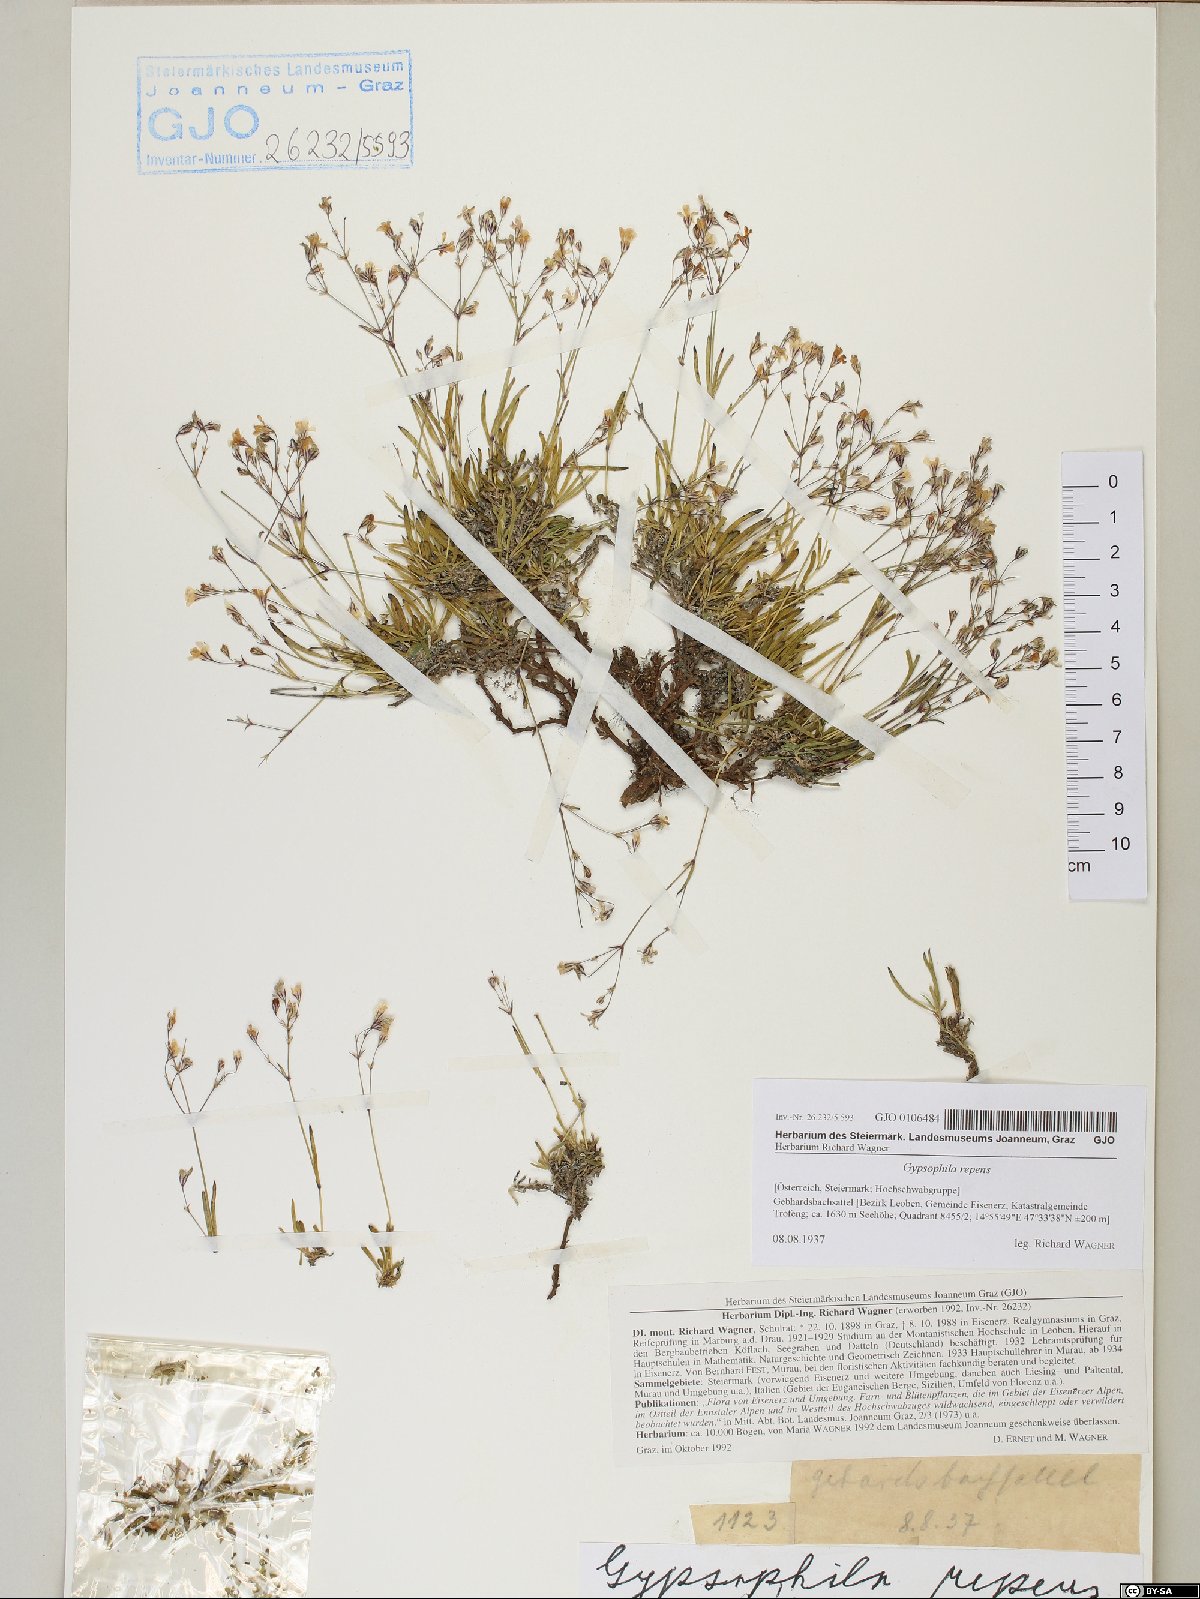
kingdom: Plantae
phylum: Tracheophyta
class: Magnoliopsida
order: Caryophyllales
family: Caryophyllaceae
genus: Gypsophila
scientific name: Gypsophila repens
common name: Creeping baby's-breath
